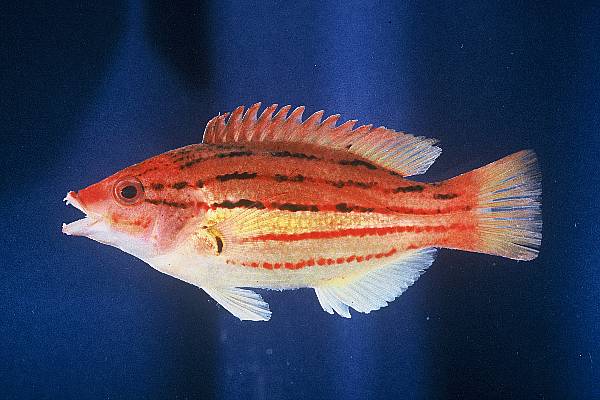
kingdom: Animalia
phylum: Chordata
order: Perciformes
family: Labridae
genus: Bodianus
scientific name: Bodianus leucosticticus
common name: Lined hogfish
